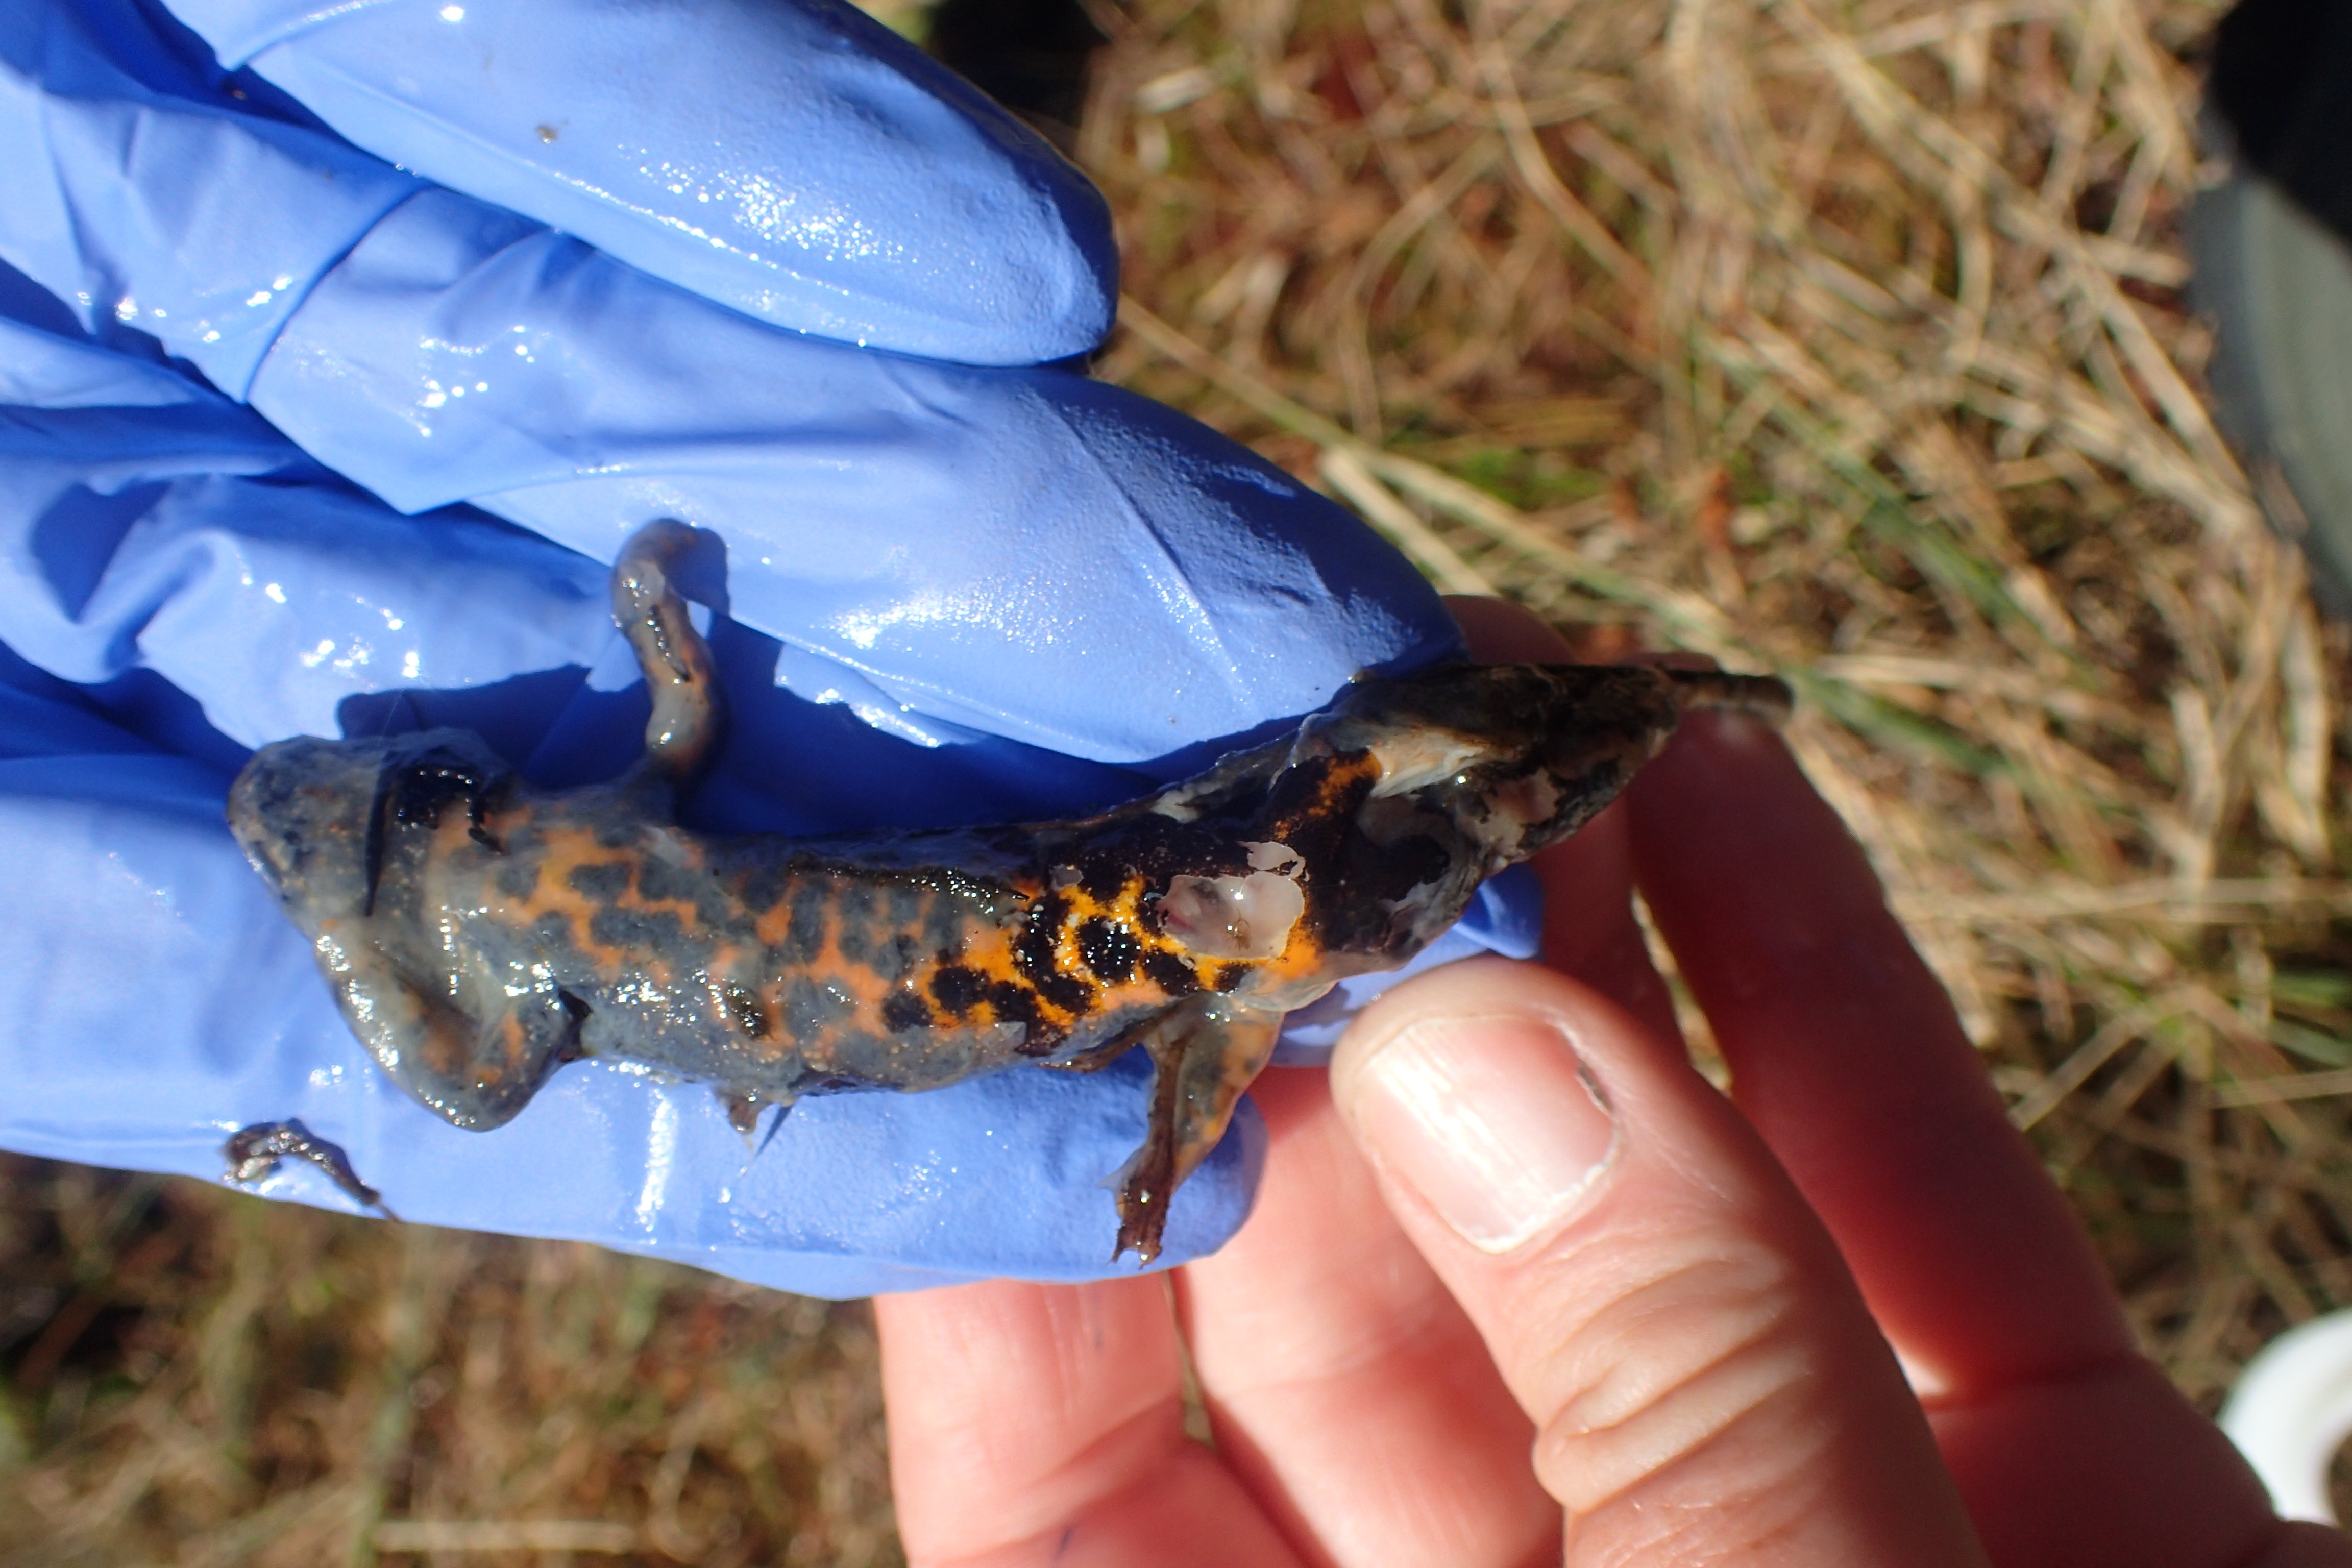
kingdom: Animalia
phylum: Chordata
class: Amphibia
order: Caudata
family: Salamandridae
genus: Triturus
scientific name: Triturus cristatus
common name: Crested newt
